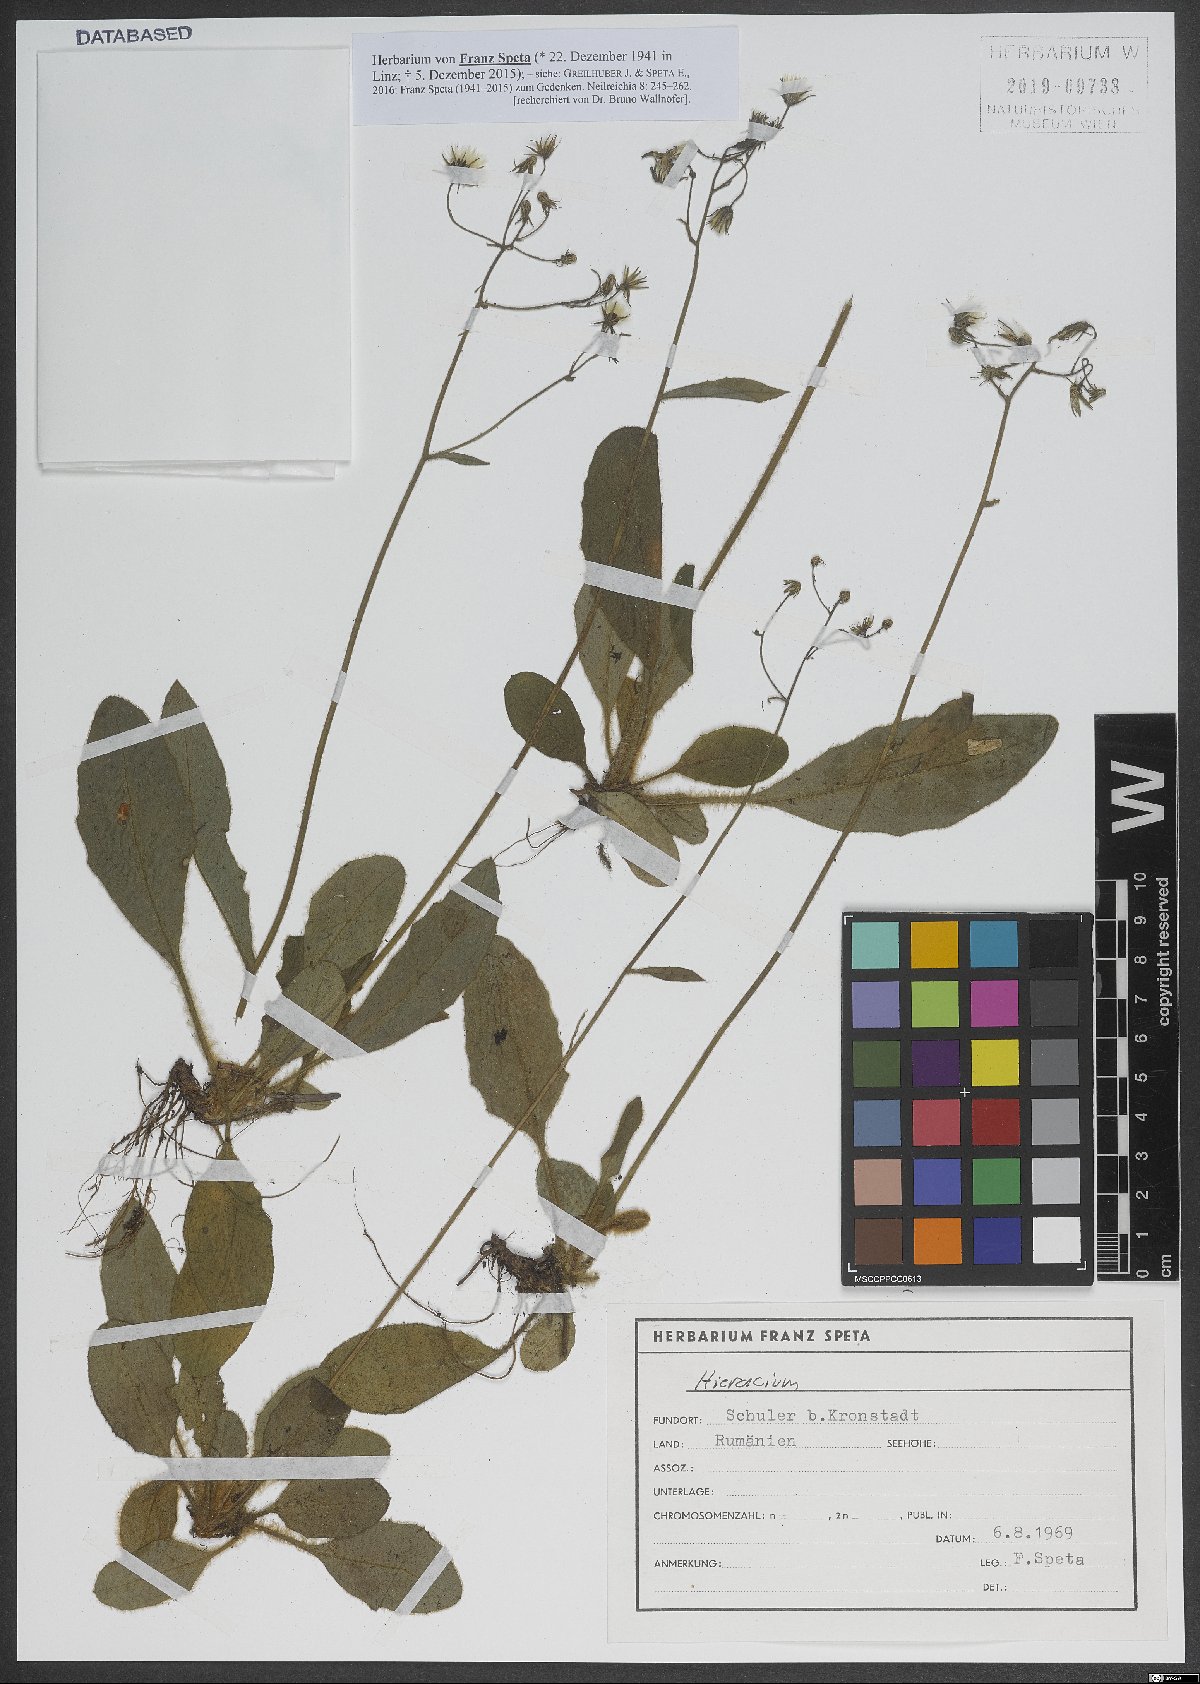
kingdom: Plantae
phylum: Tracheophyta
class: Magnoliopsida
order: Asterales
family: Asteraceae
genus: Hieracium
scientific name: Hieracium
